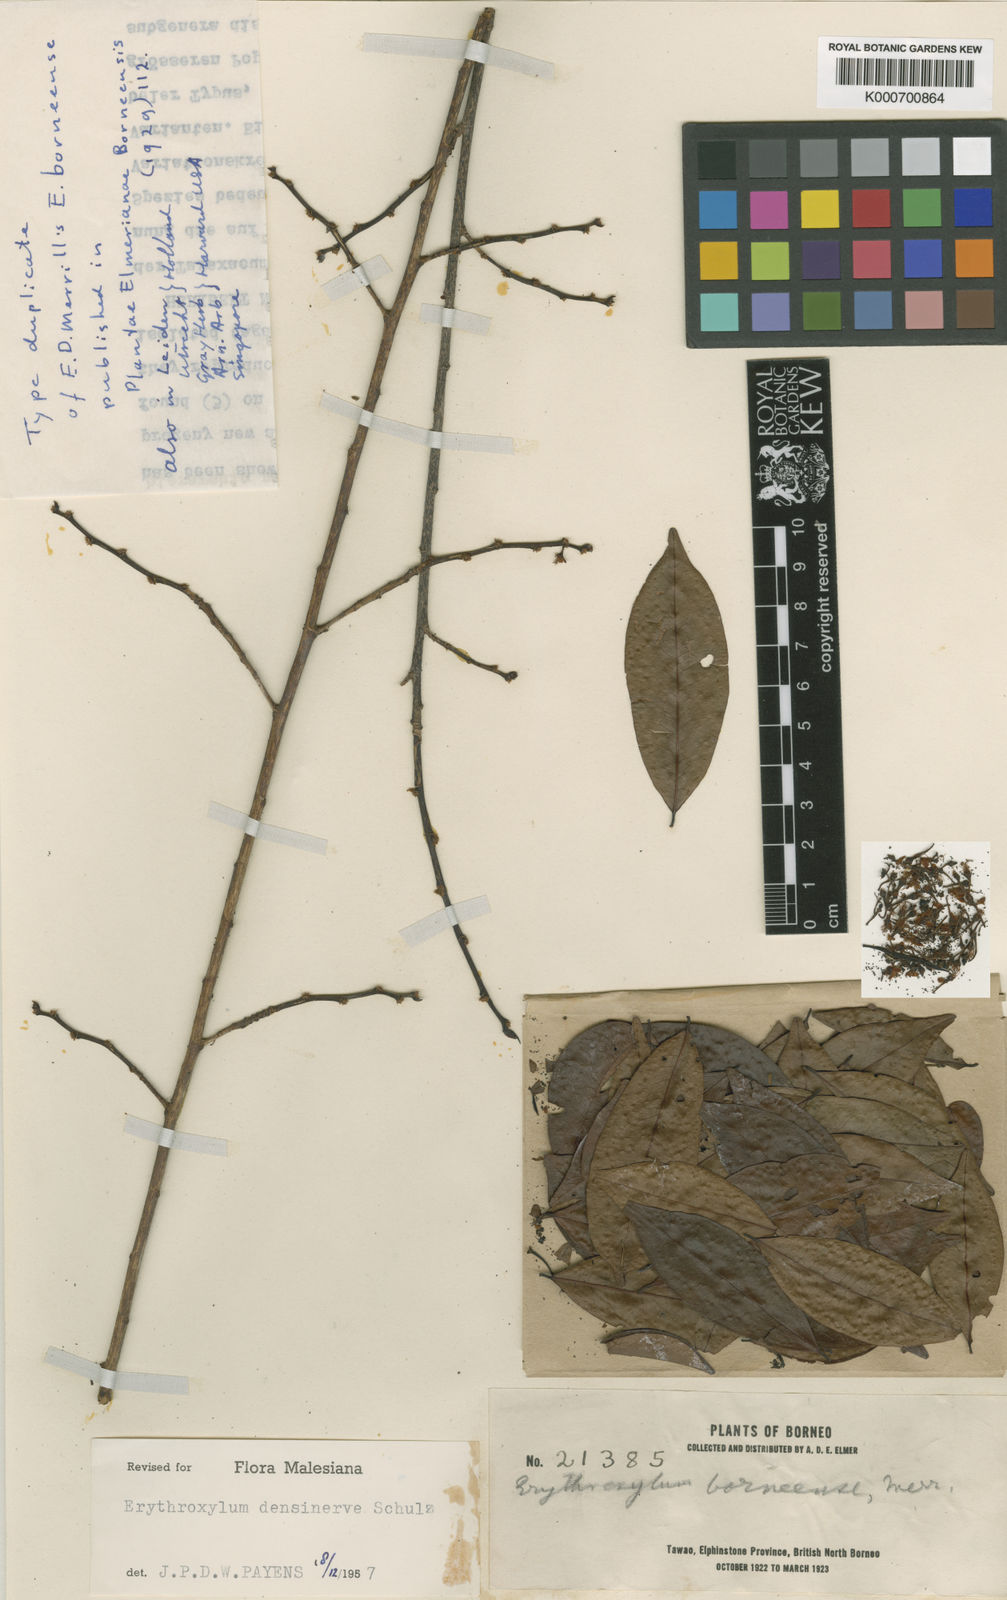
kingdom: Plantae
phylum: Tracheophyta
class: Magnoliopsida
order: Malpighiales
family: Erythroxylaceae
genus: Erythroxylum
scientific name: Erythroxylum cuneatum
